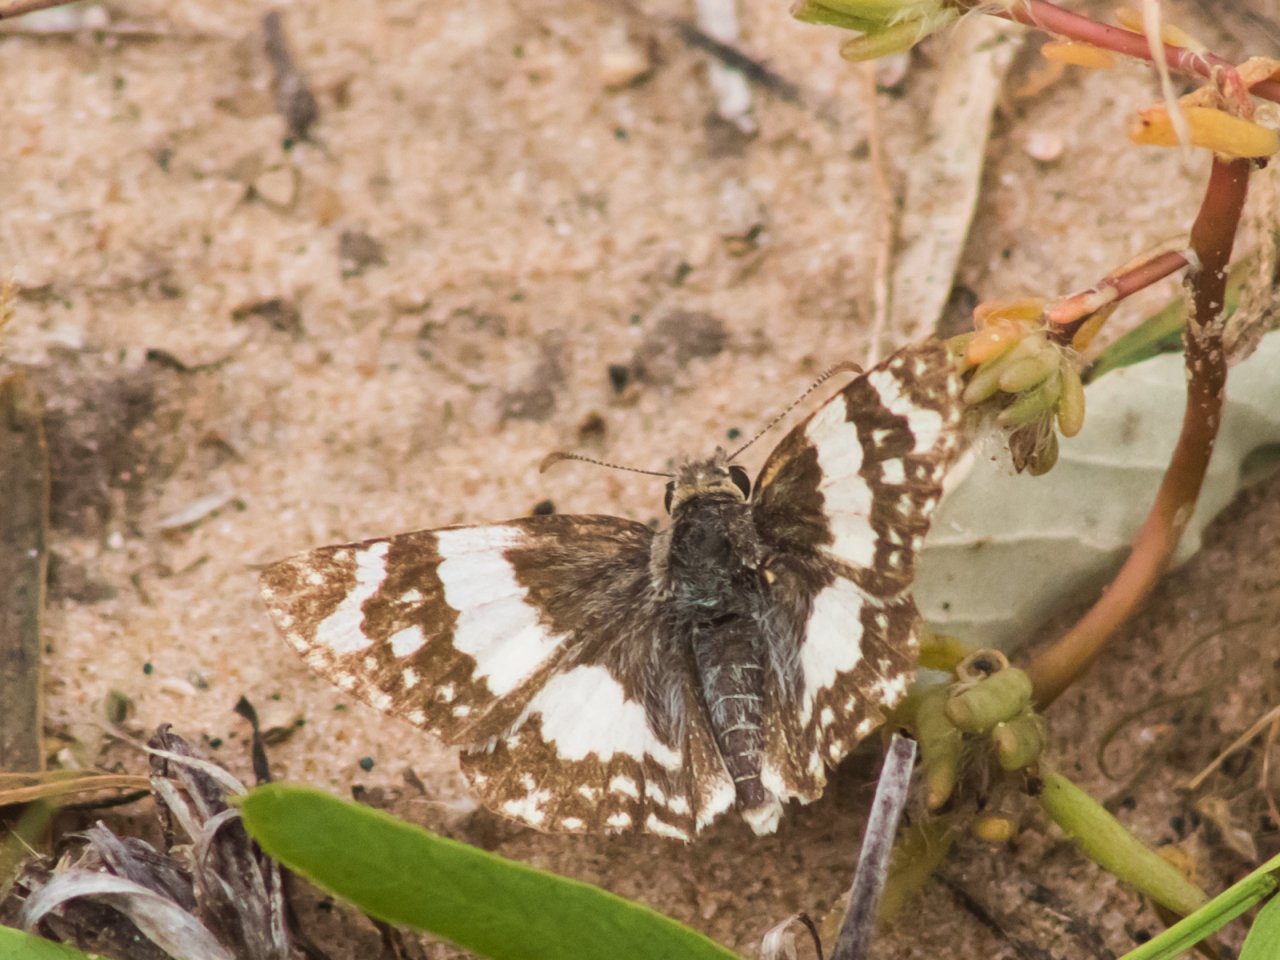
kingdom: Animalia
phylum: Arthropoda
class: Insecta
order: Lepidoptera
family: Hesperiidae
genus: Heliopyrgus
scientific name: Heliopyrgus domicella
